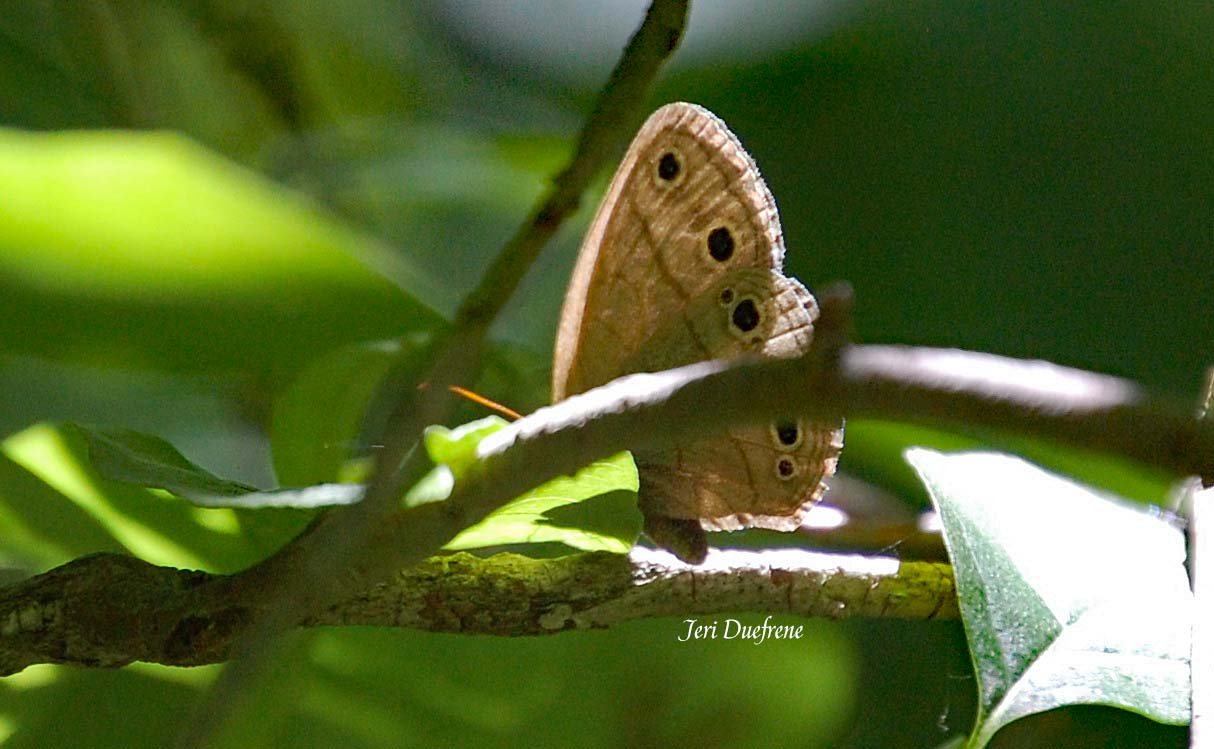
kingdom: Animalia
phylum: Arthropoda
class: Insecta
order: Lepidoptera
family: Nymphalidae
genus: Euptychia
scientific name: Euptychia cymela
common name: Little Wood Satyr
